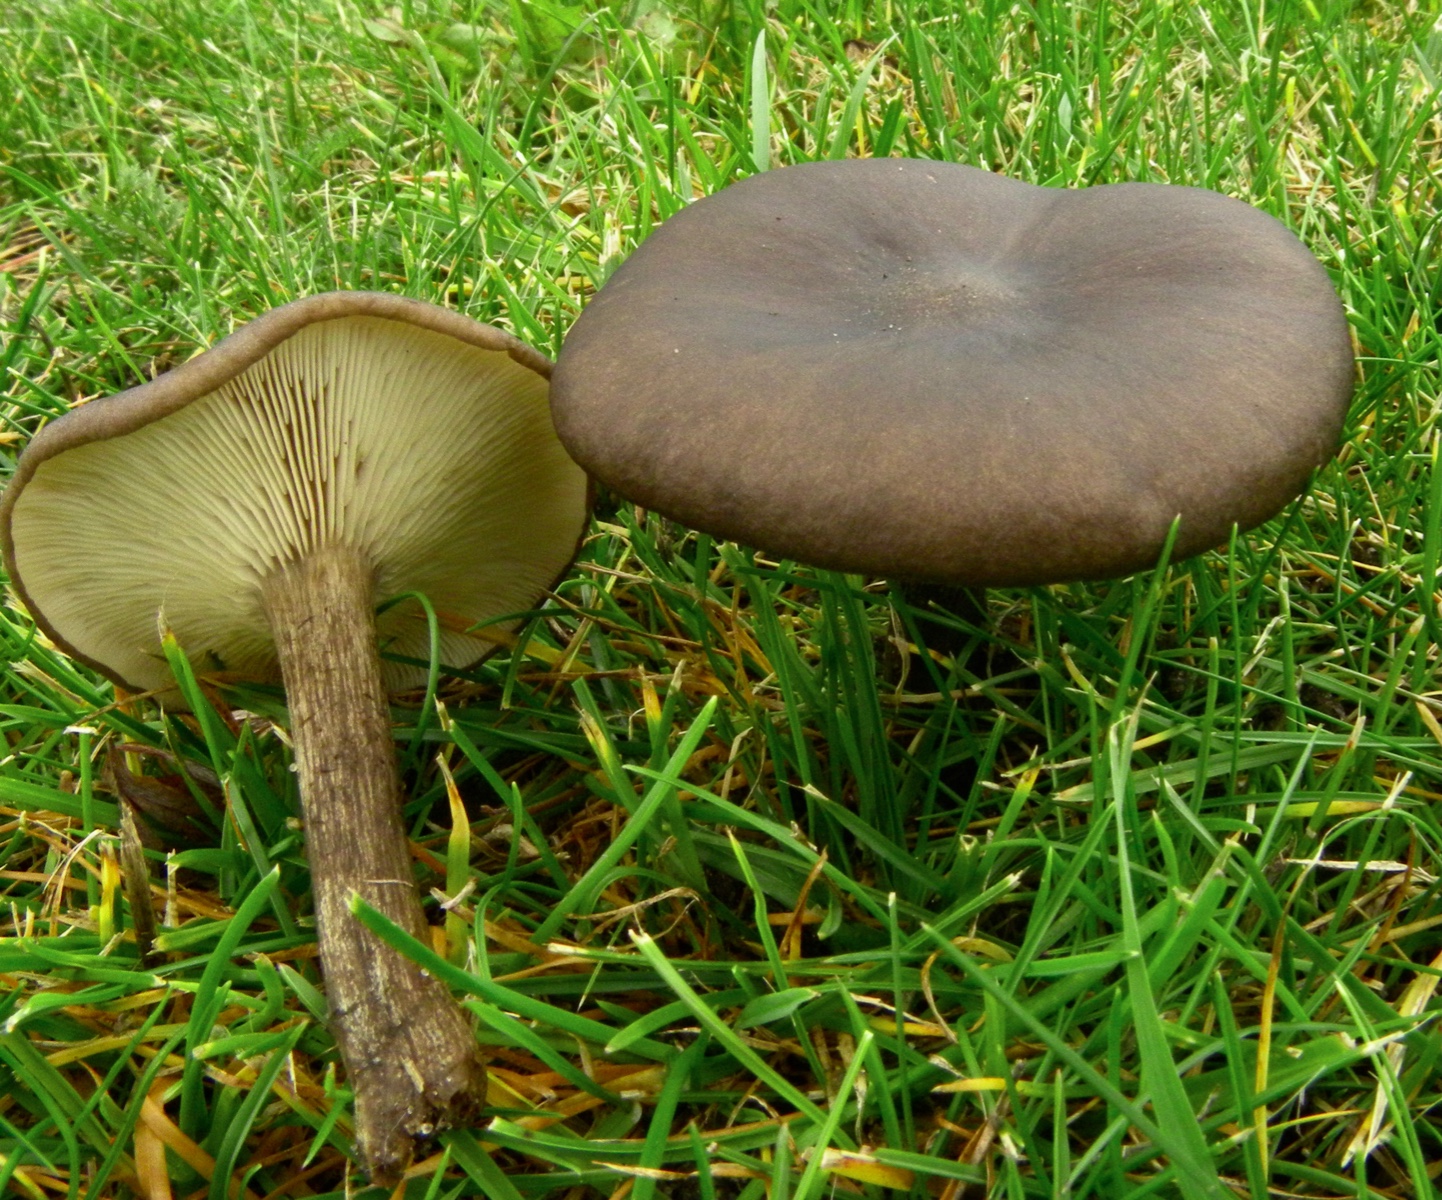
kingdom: Fungi
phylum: Basidiomycota
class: Agaricomycetes
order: Agaricales
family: Tricholomataceae
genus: Melanoleuca
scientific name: Melanoleuca
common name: munkehat
